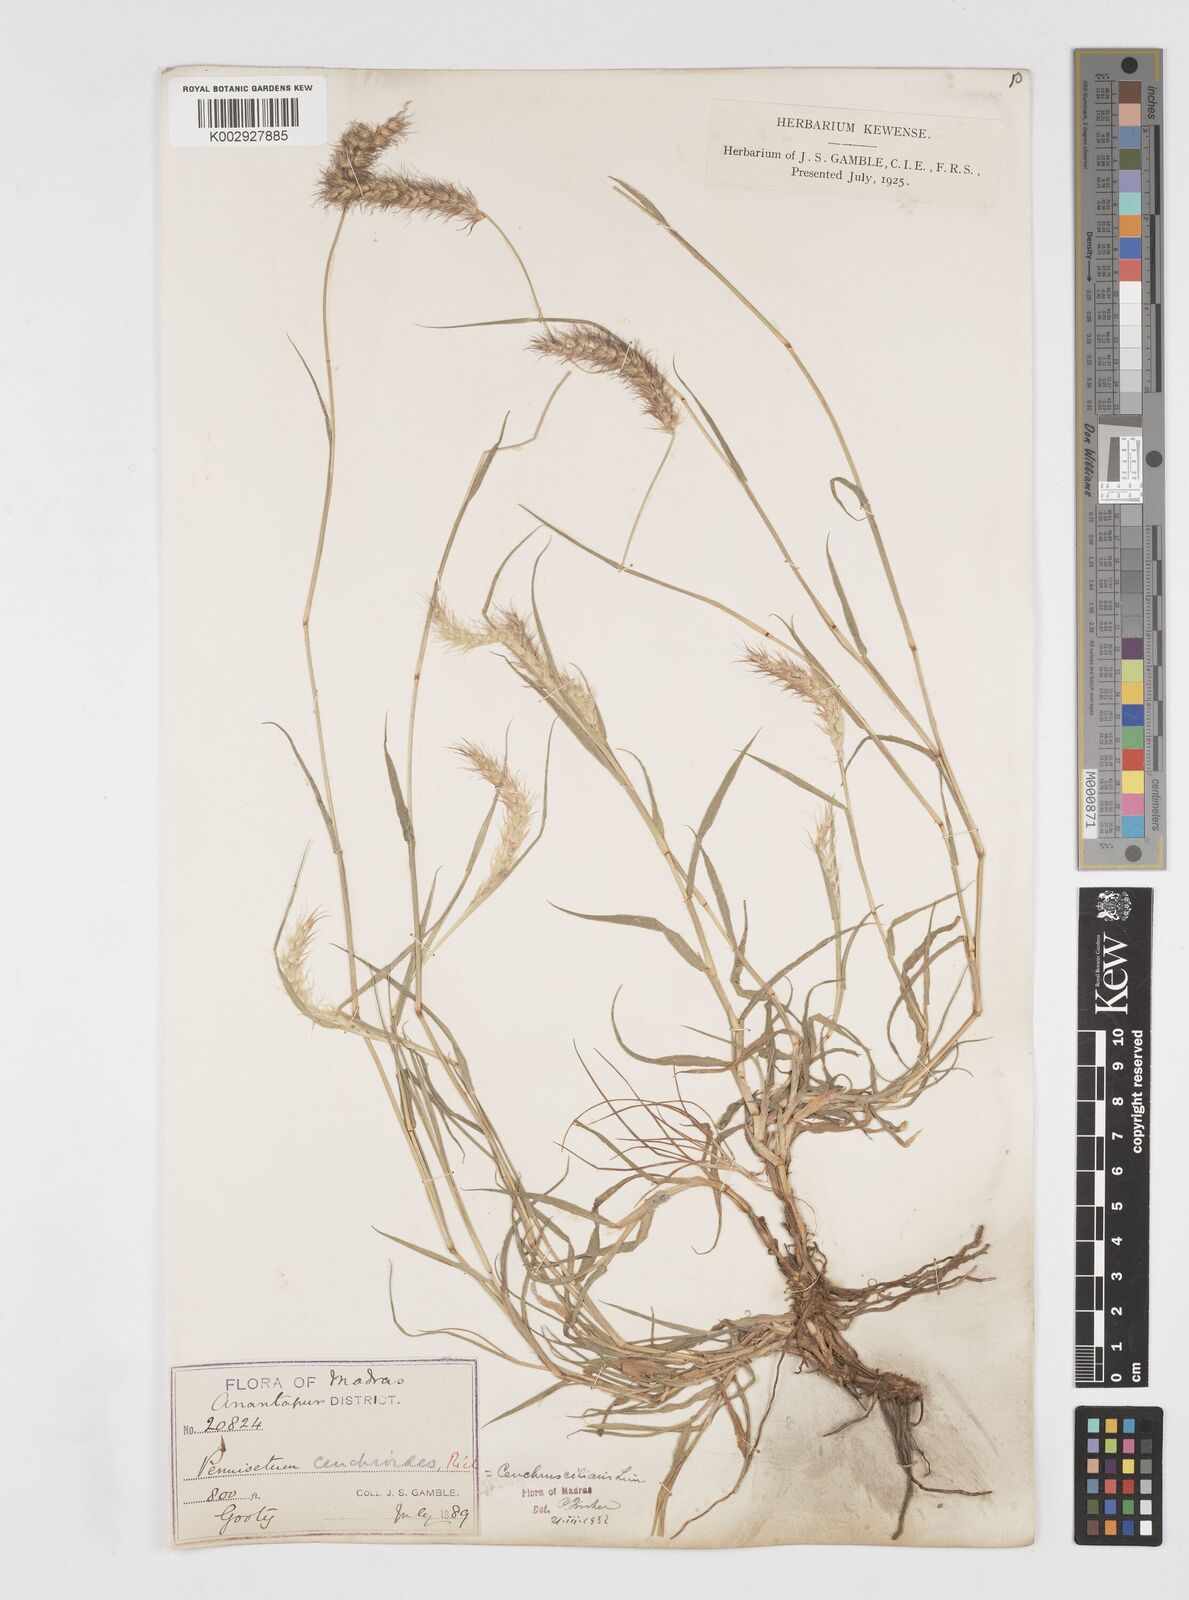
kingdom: Plantae
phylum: Tracheophyta
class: Liliopsida
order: Poales
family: Poaceae
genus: Cenchrus
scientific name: Cenchrus ciliaris
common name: Buffelgrass
